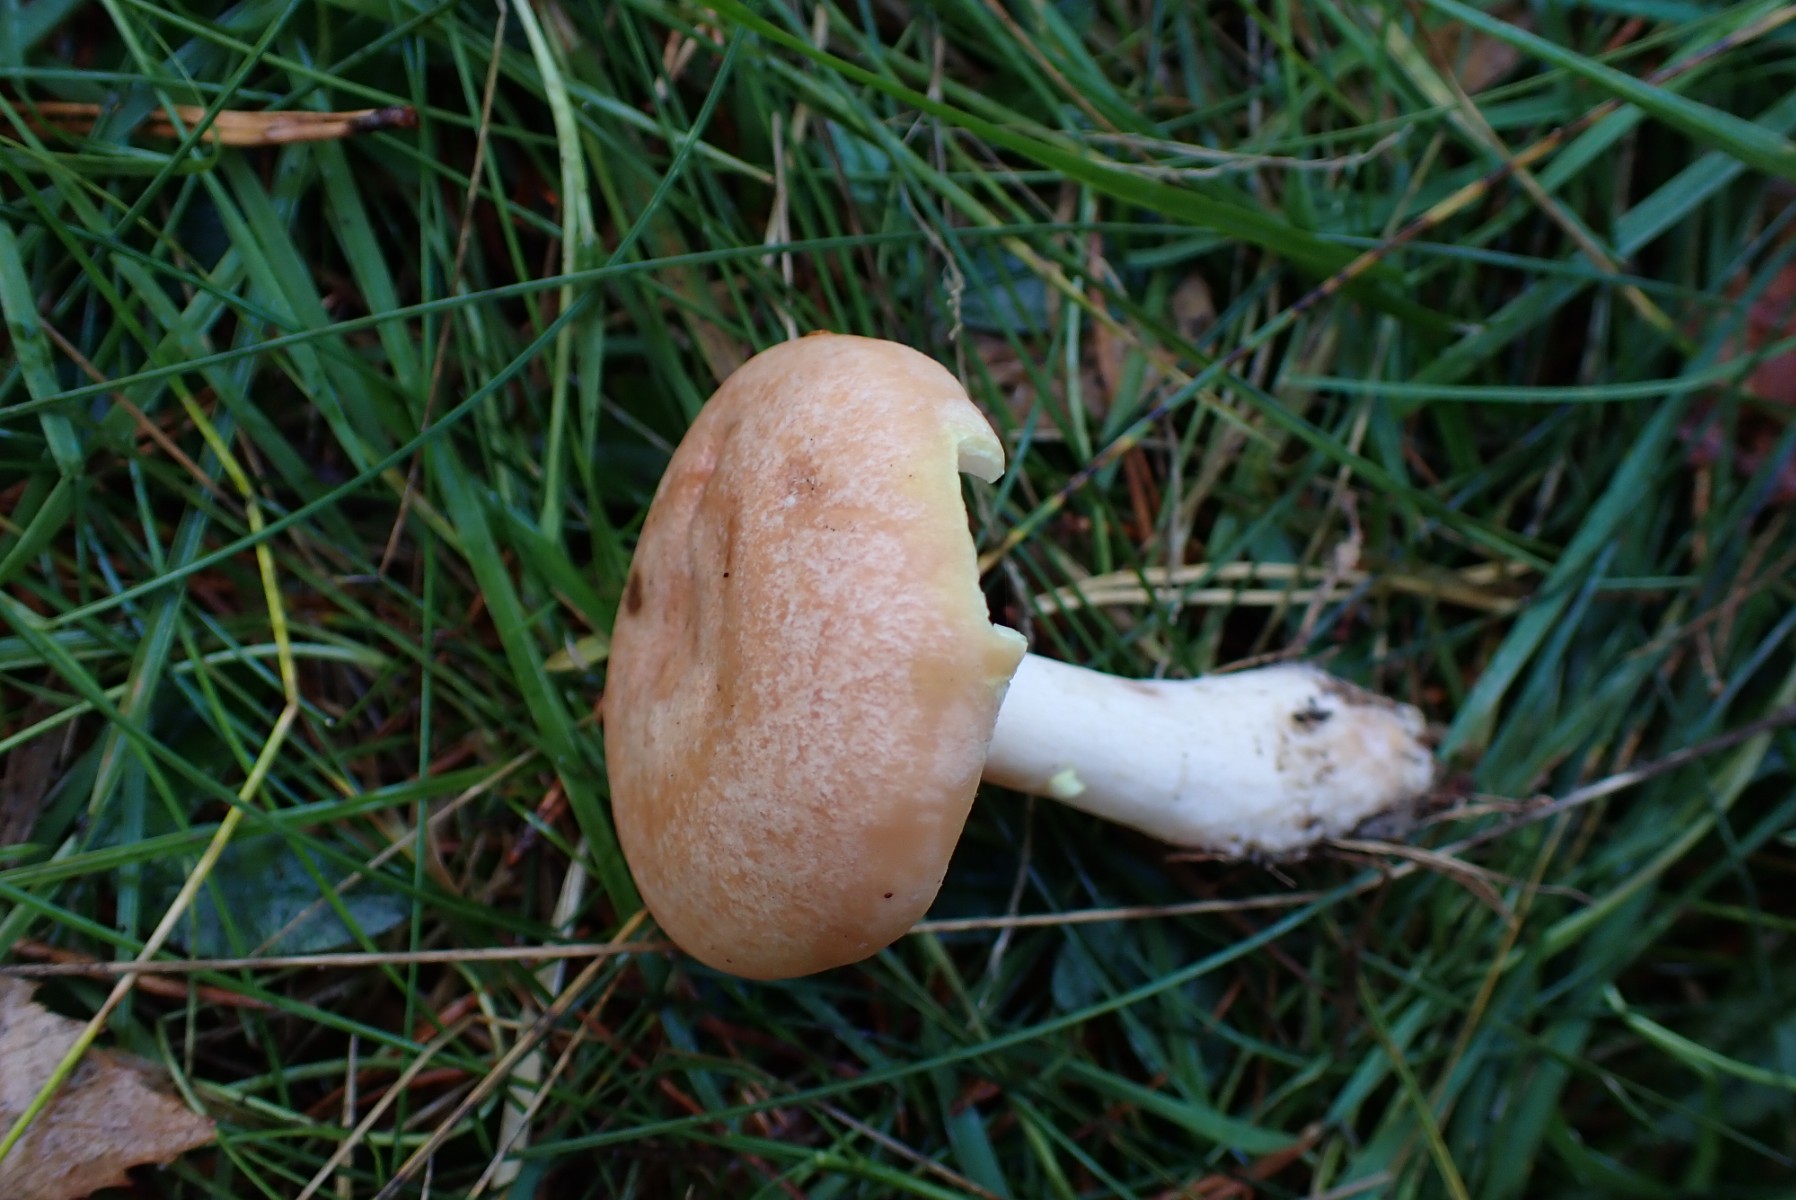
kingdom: Fungi
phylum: Basidiomycota
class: Agaricomycetes
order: Russulales
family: Russulaceae
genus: Lactarius
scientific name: Lactarius chrysorrheus
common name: svovlmælket mælkehat
